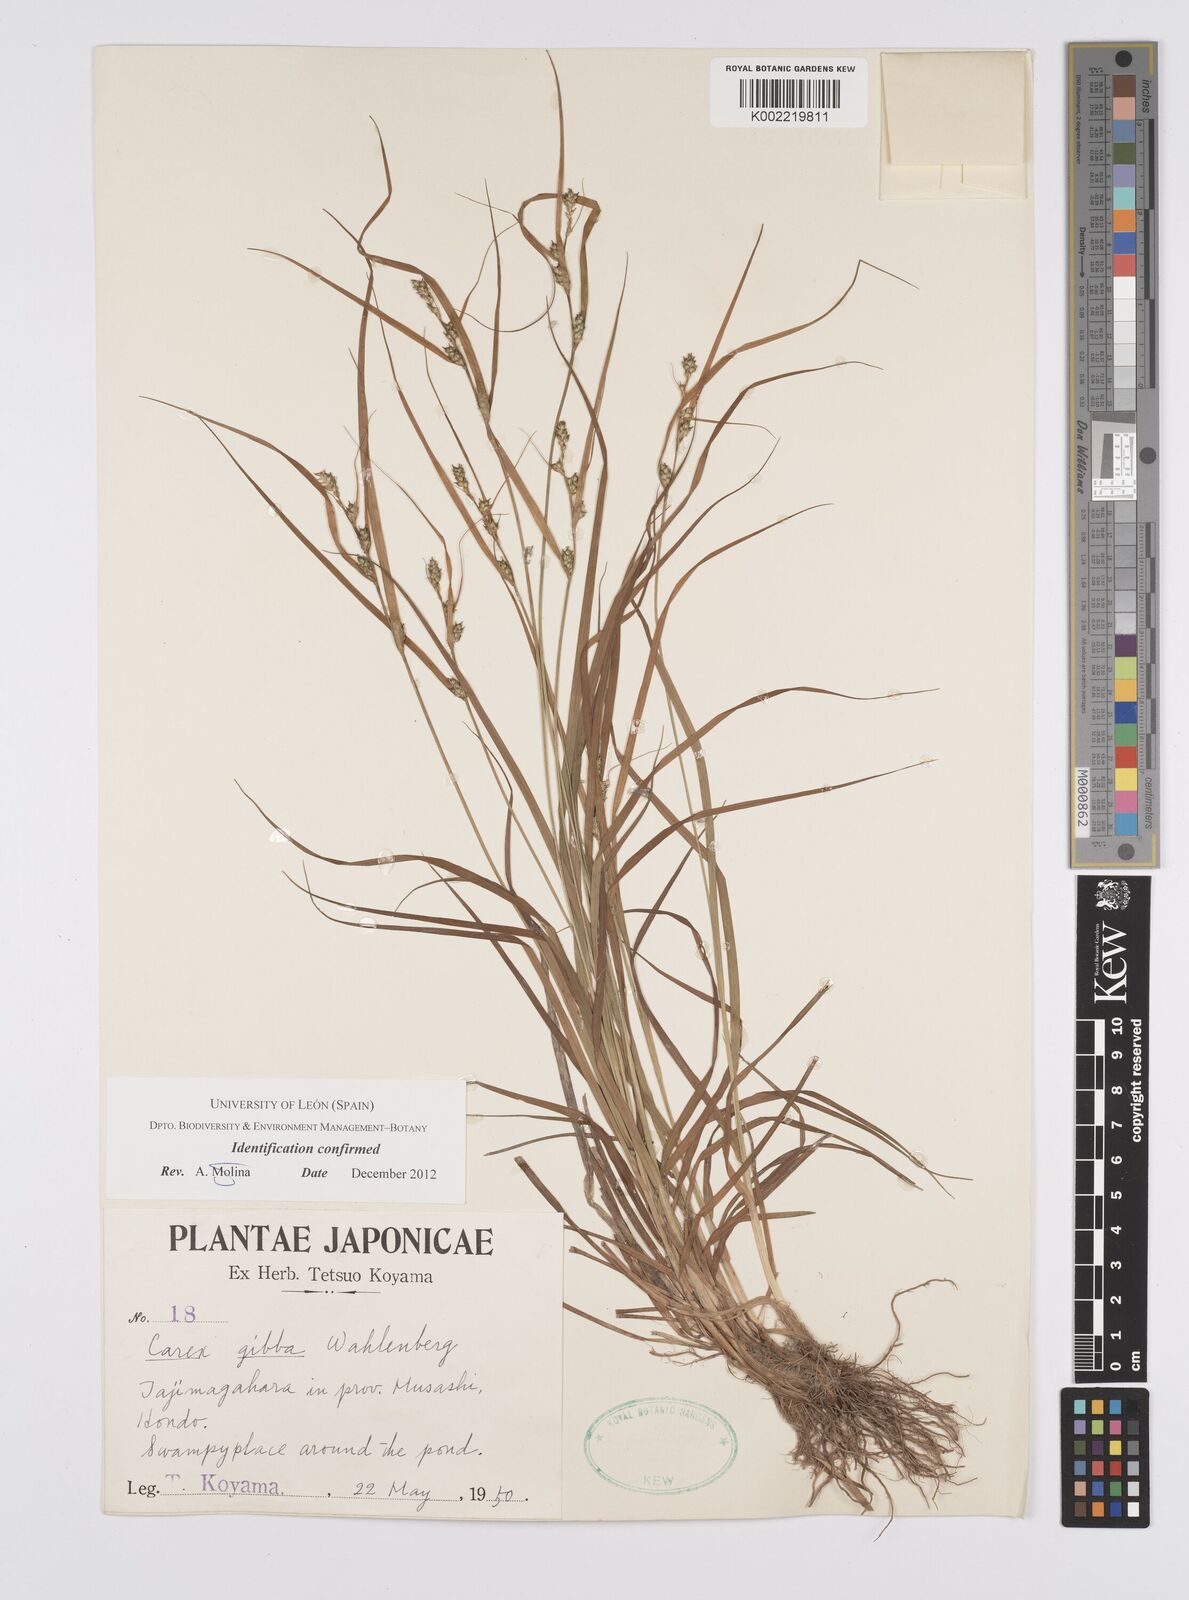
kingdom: Plantae
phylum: Tracheophyta
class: Liliopsida
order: Poales
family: Cyperaceae
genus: Carex
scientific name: Carex gibba
